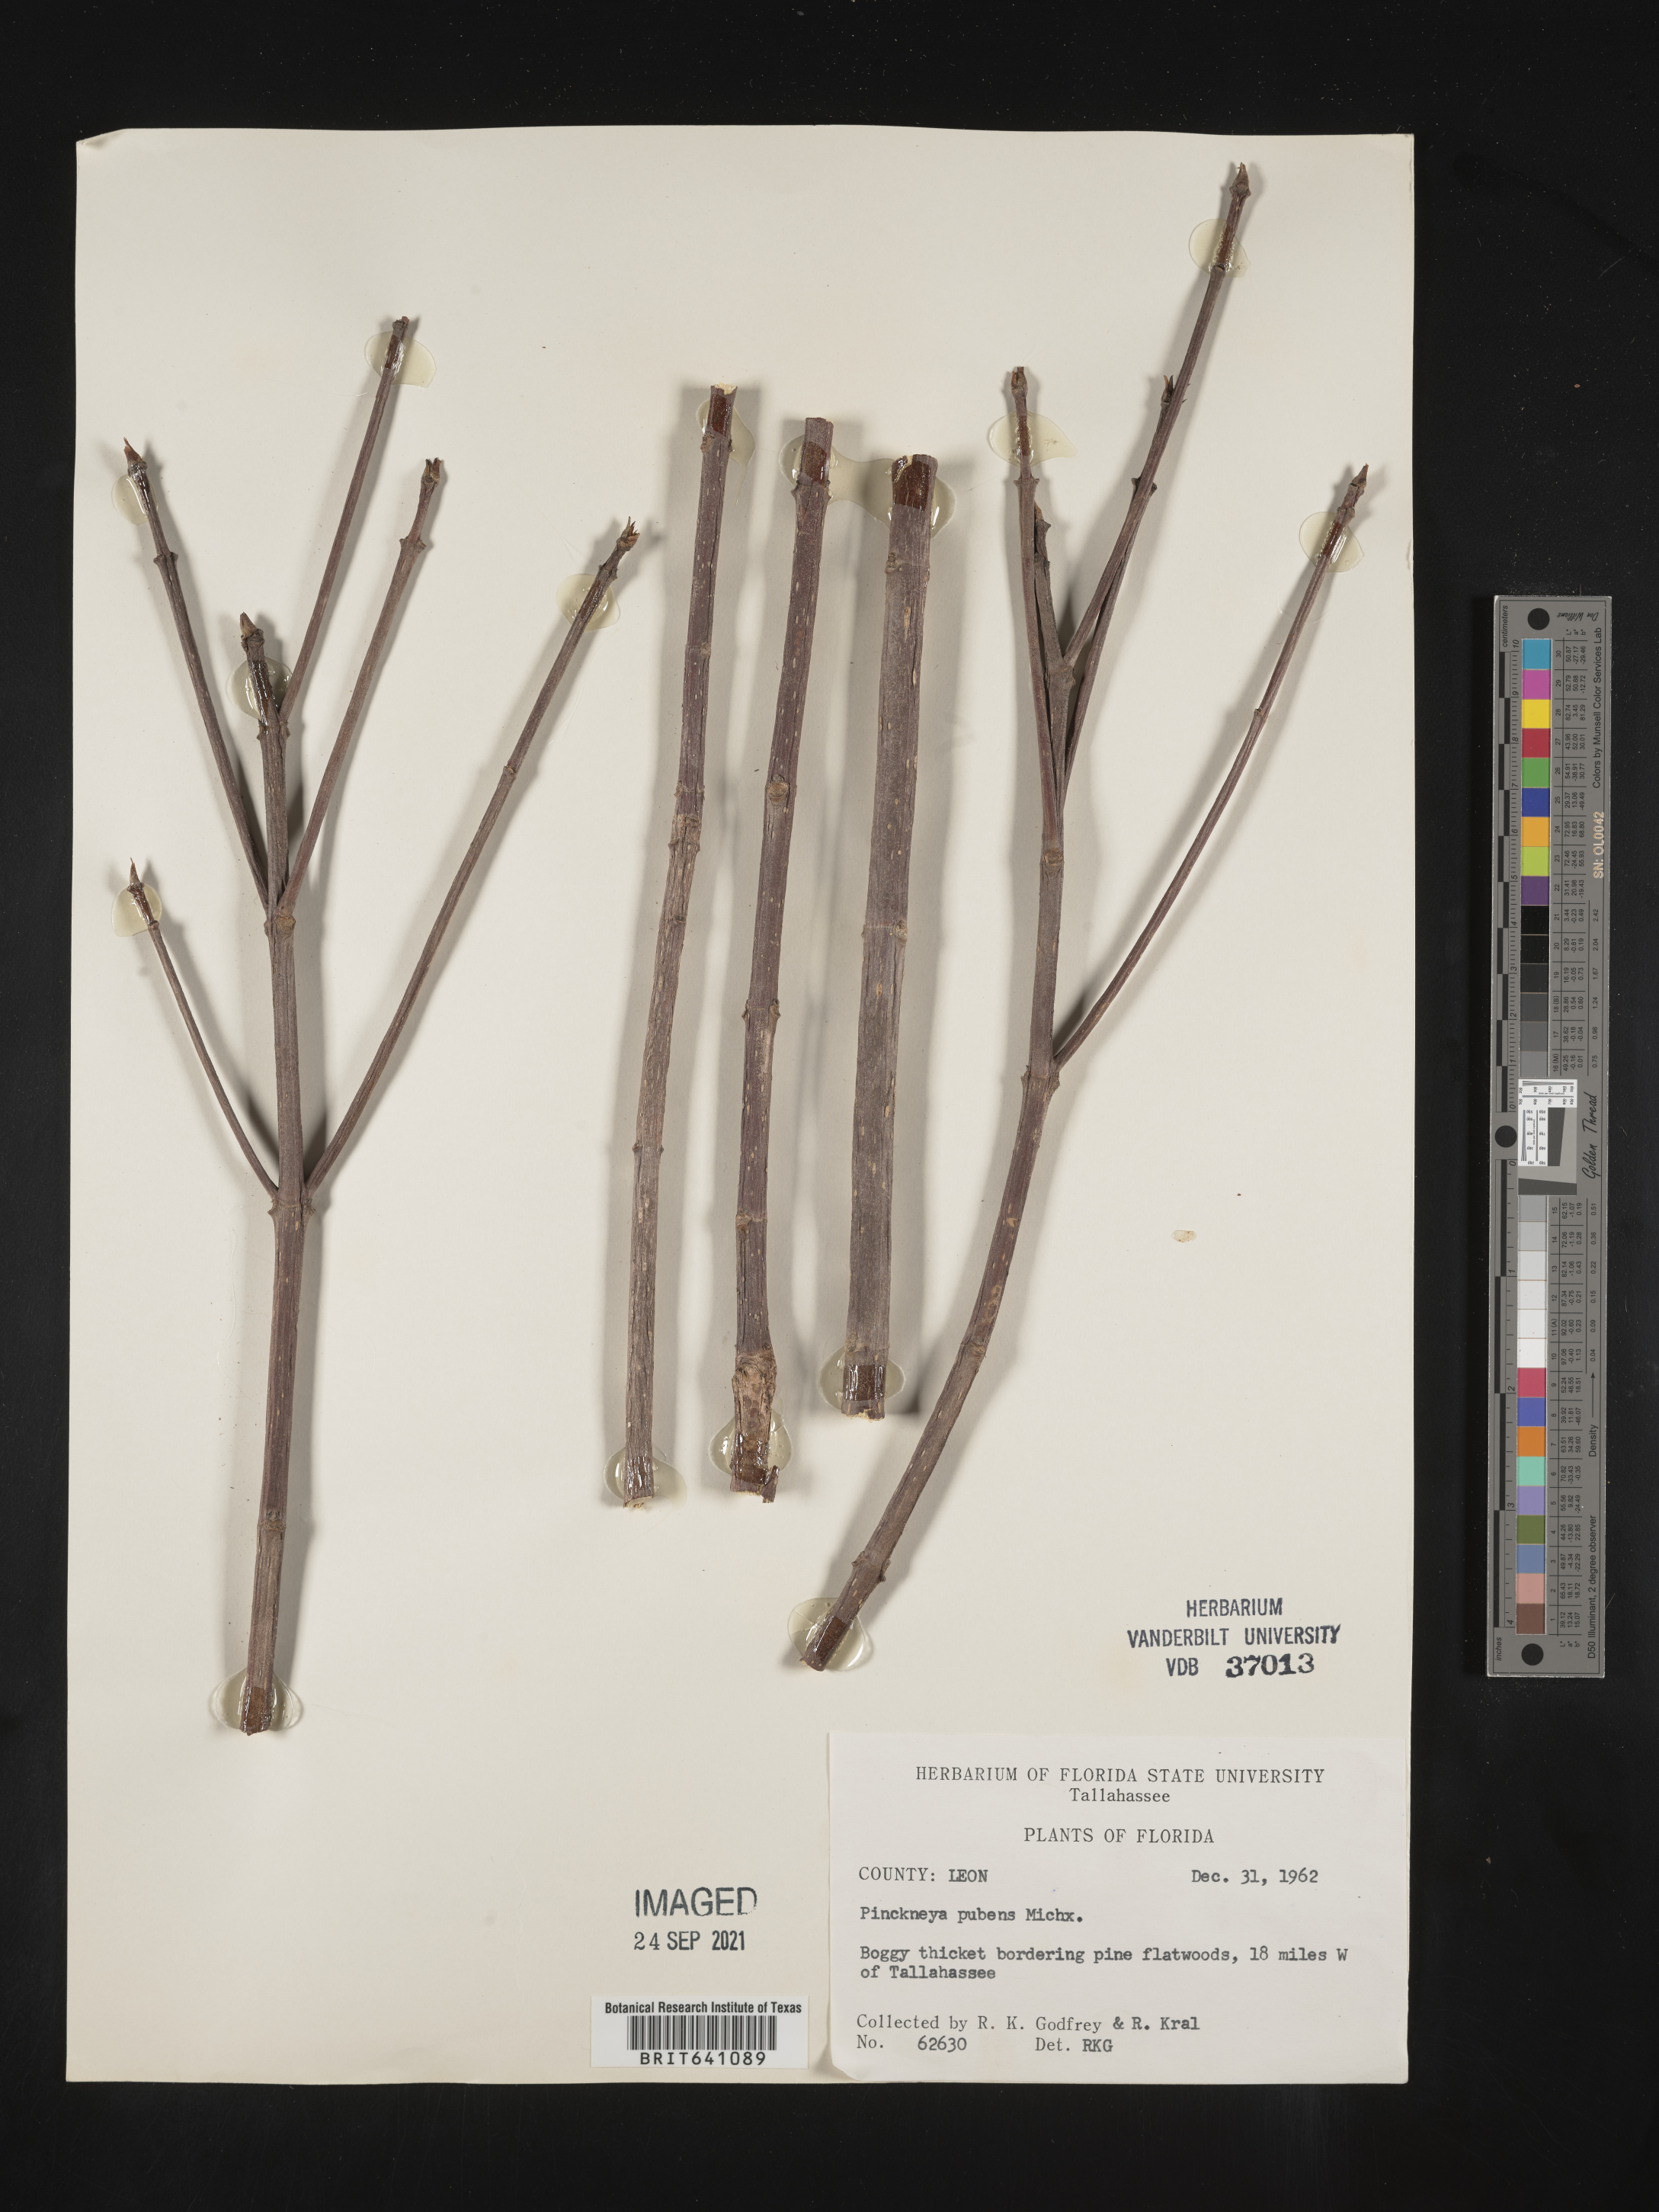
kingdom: Plantae
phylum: Tracheophyta
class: Magnoliopsida
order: Gentianales
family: Rubiaceae
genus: Pinckneya
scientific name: Pinckneya pubens
